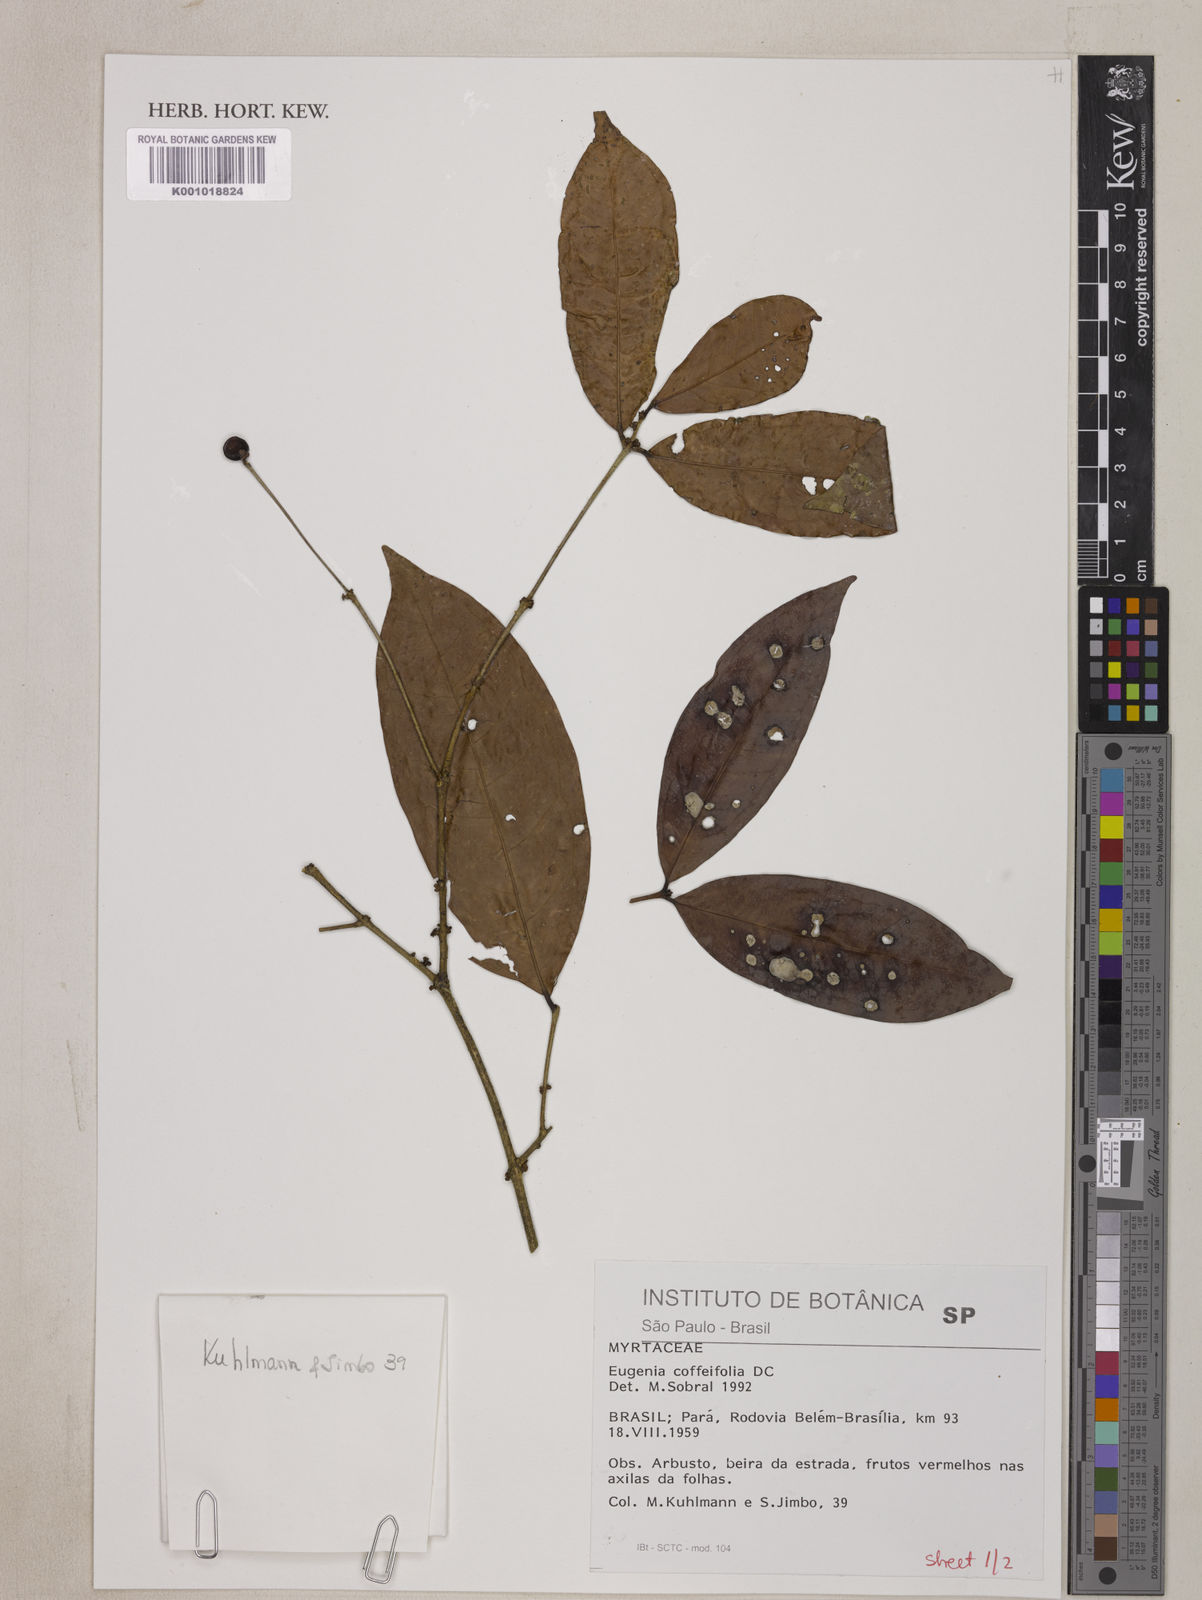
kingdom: Plantae
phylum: Tracheophyta
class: Magnoliopsida
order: Myrtales
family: Myrtaceae
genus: Eugenia
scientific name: Eugenia coffeifolia
